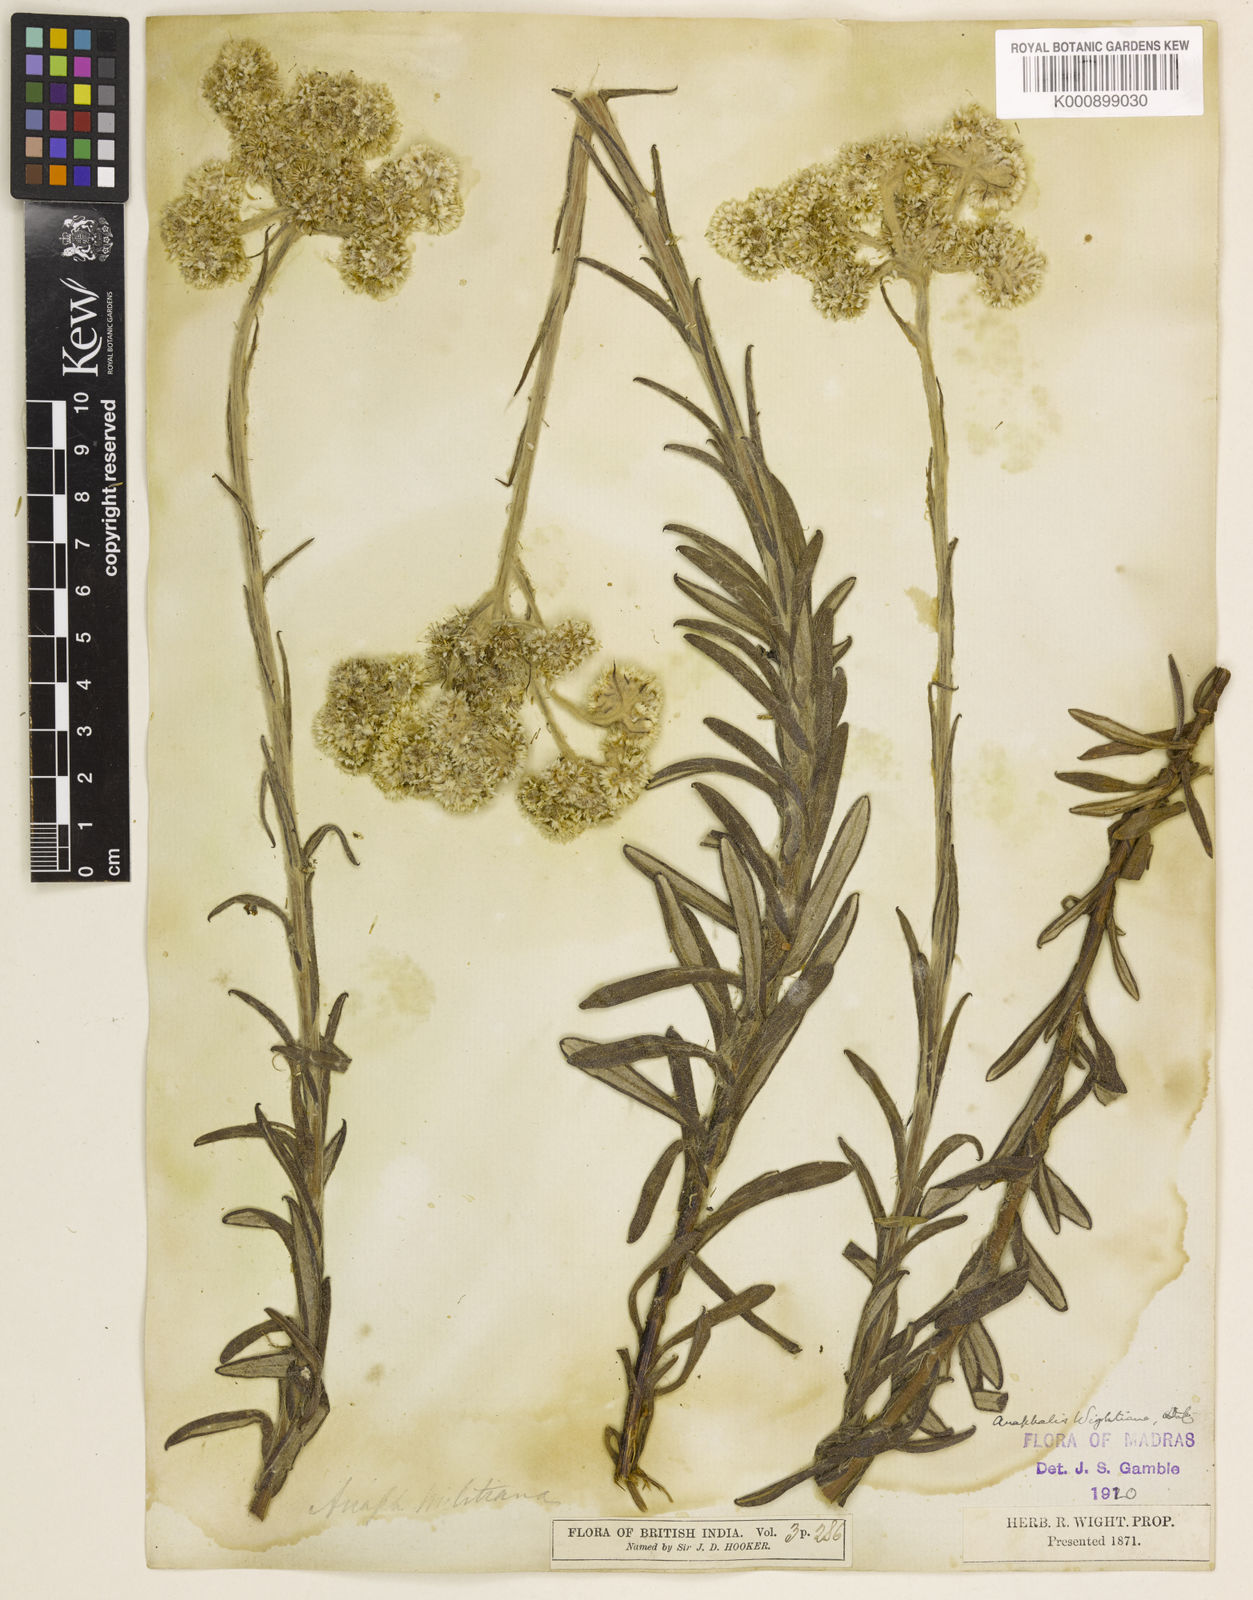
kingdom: Plantae
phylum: Tracheophyta
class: Magnoliopsida
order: Asterales
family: Asteraceae
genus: Anaphalis
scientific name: Anaphalis wightiana
